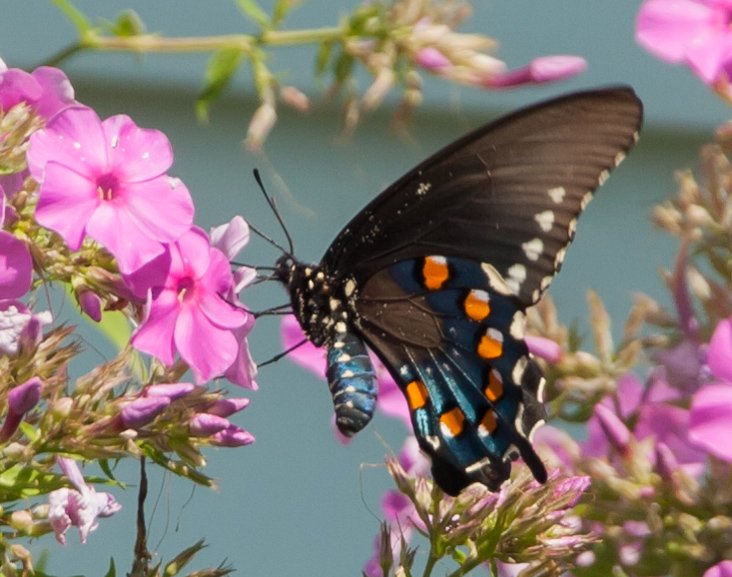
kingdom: Animalia
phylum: Arthropoda
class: Insecta
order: Lepidoptera
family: Papilionidae
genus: Battus
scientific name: Battus philenor
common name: Pipevine Swallowtail
